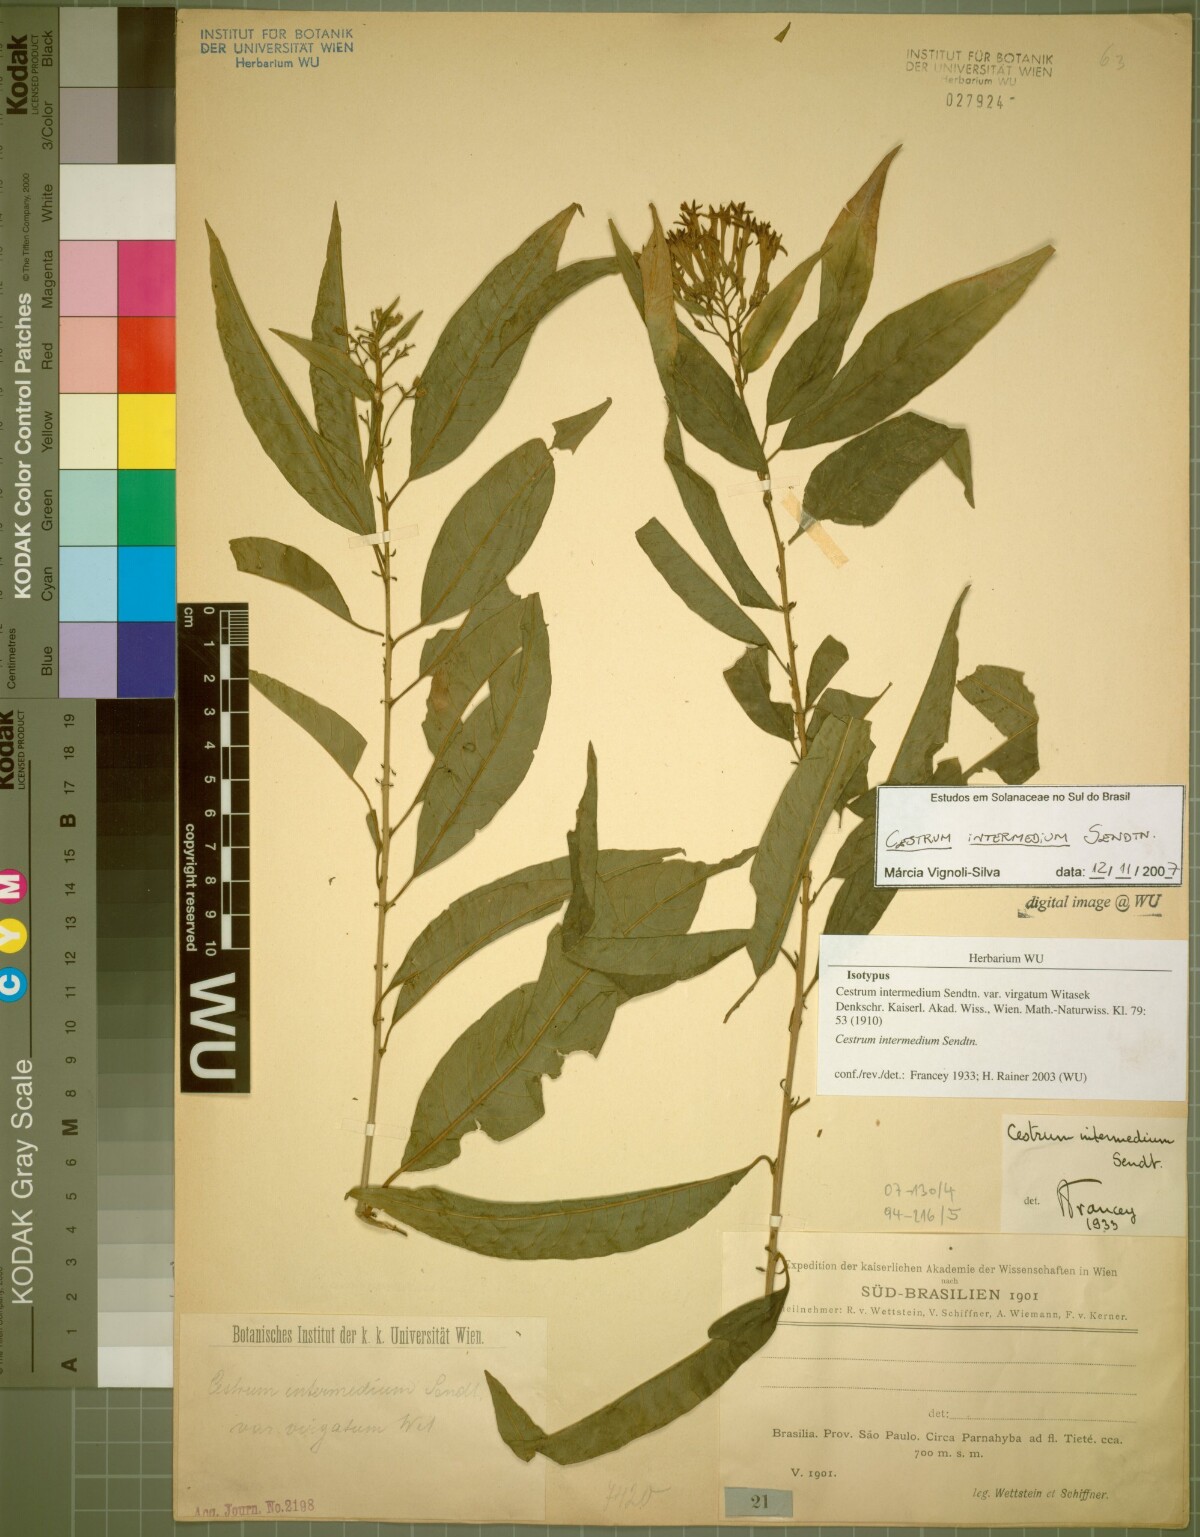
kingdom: Plantae
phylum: Tracheophyta
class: Magnoliopsida
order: Solanales
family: Solanaceae
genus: Cestrum
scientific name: Cestrum intermedium
